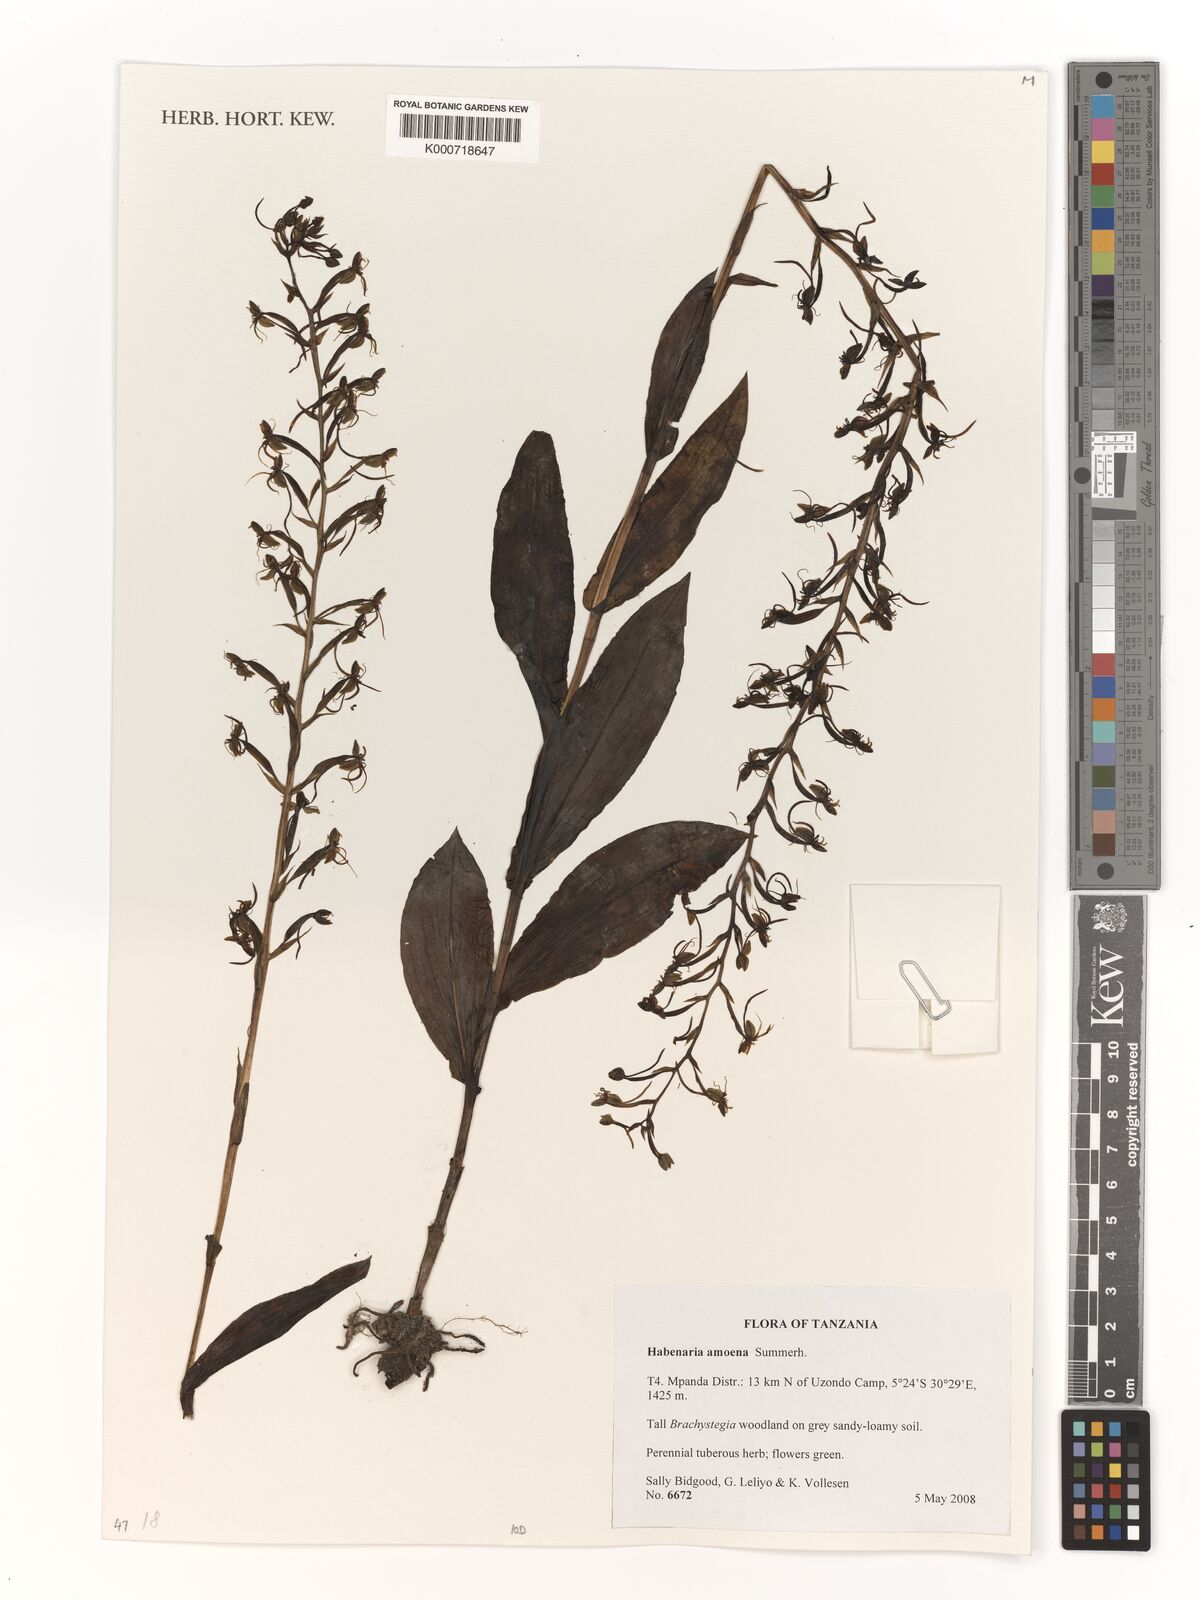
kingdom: Plantae
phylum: Tracheophyta
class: Liliopsida
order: Asparagales
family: Orchidaceae
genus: Habenaria
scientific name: Habenaria amoena
